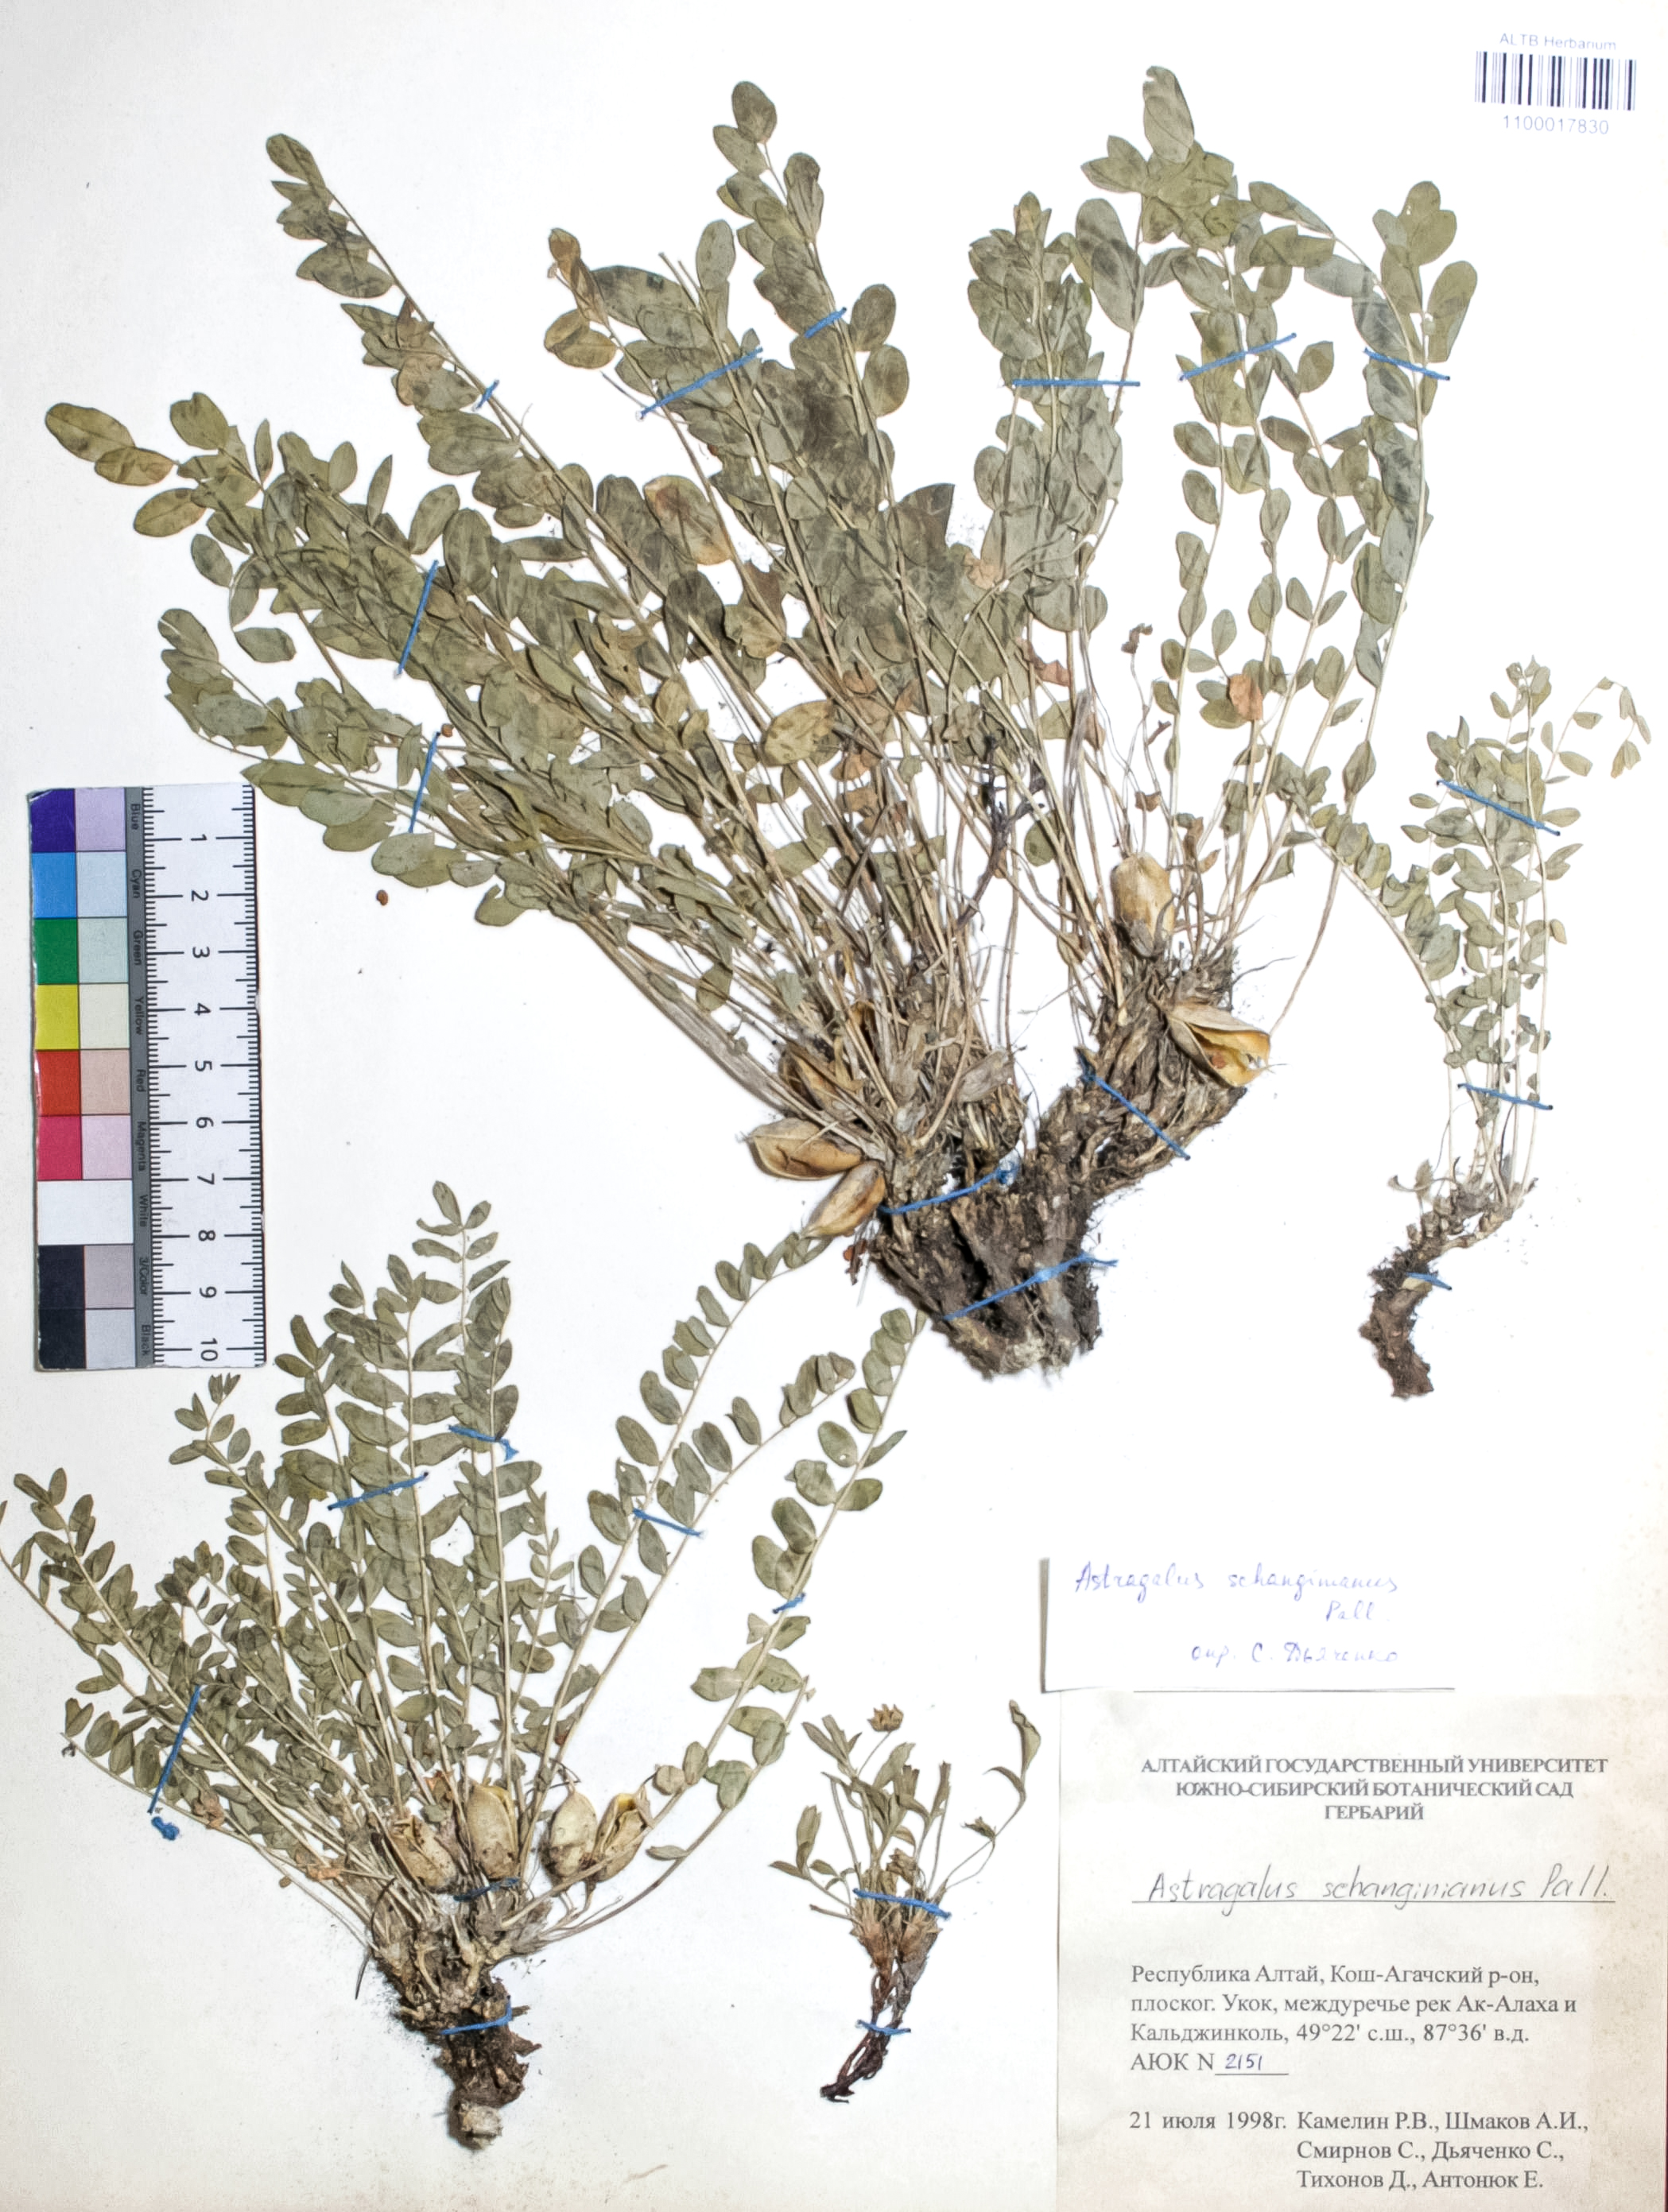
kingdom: Plantae
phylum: Tracheophyta
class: Magnoliopsida
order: Fabales
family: Fabaceae
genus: Astragalus
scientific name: Astragalus schanginianus
